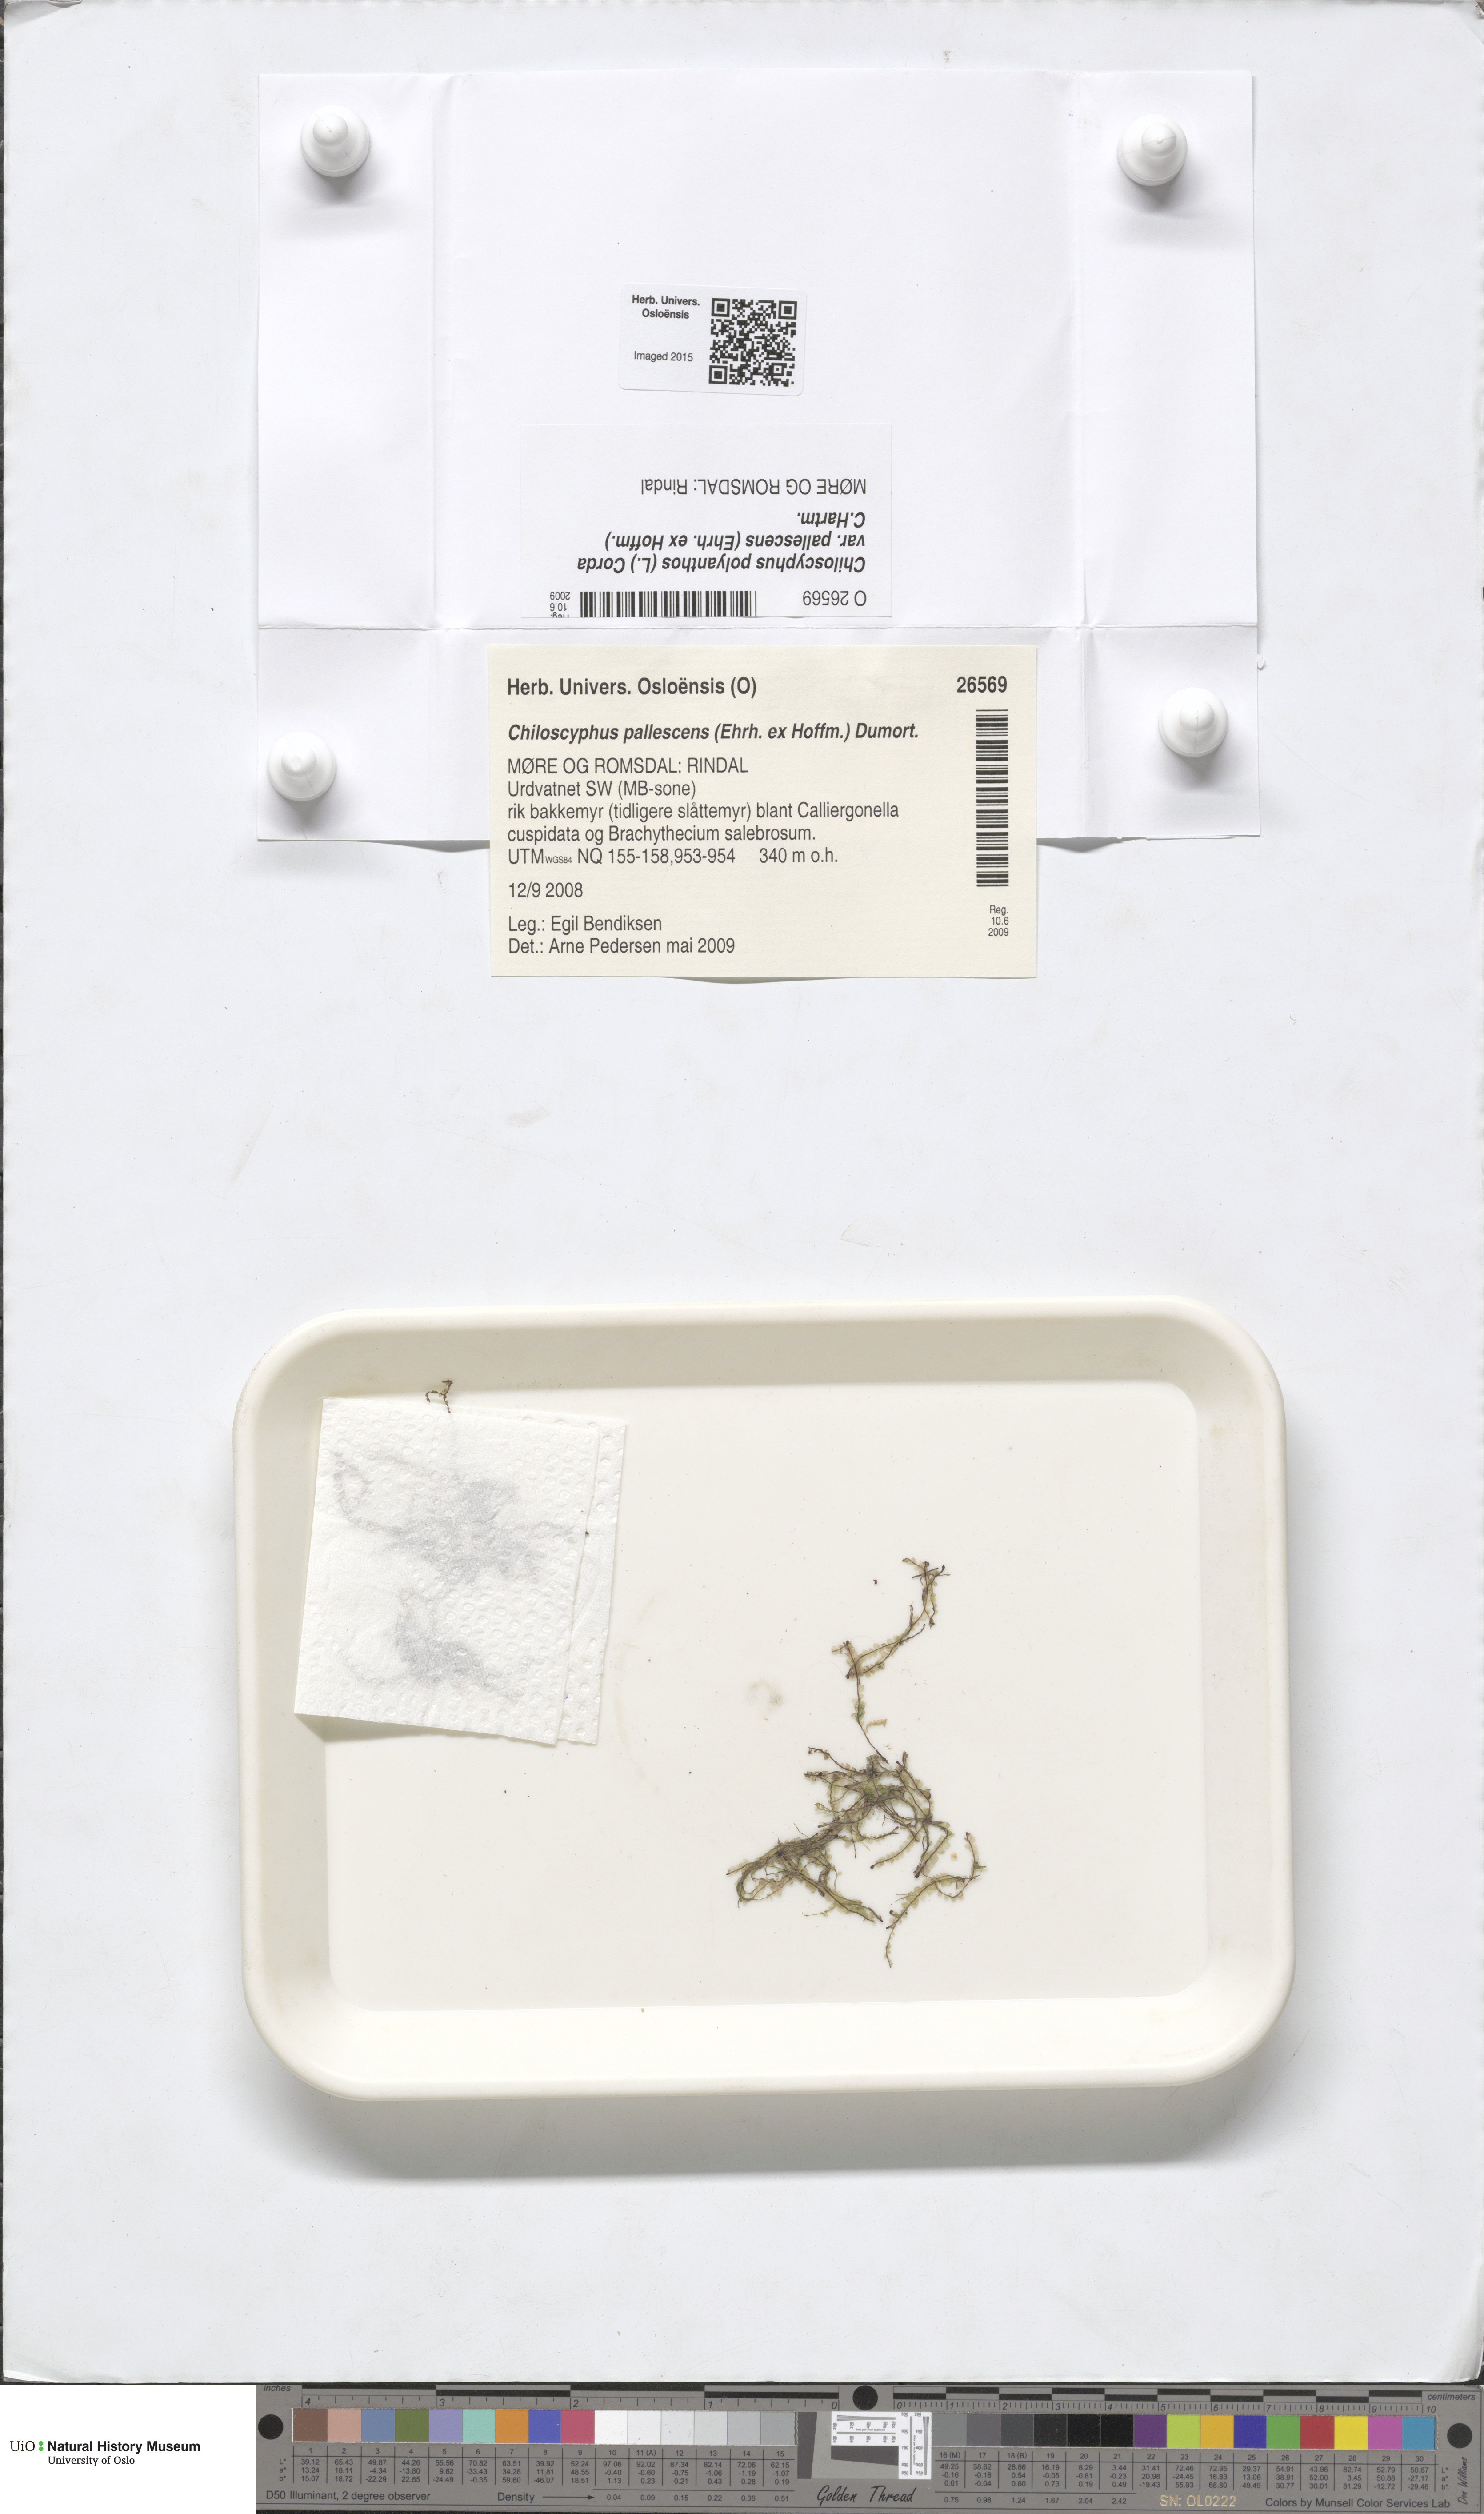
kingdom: Plantae
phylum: Marchantiophyta
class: Jungermanniopsida
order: Jungermanniales
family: Lophocoleaceae
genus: Chiloscyphus
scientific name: Chiloscyphus pallescens
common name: St winifrid's other moss
